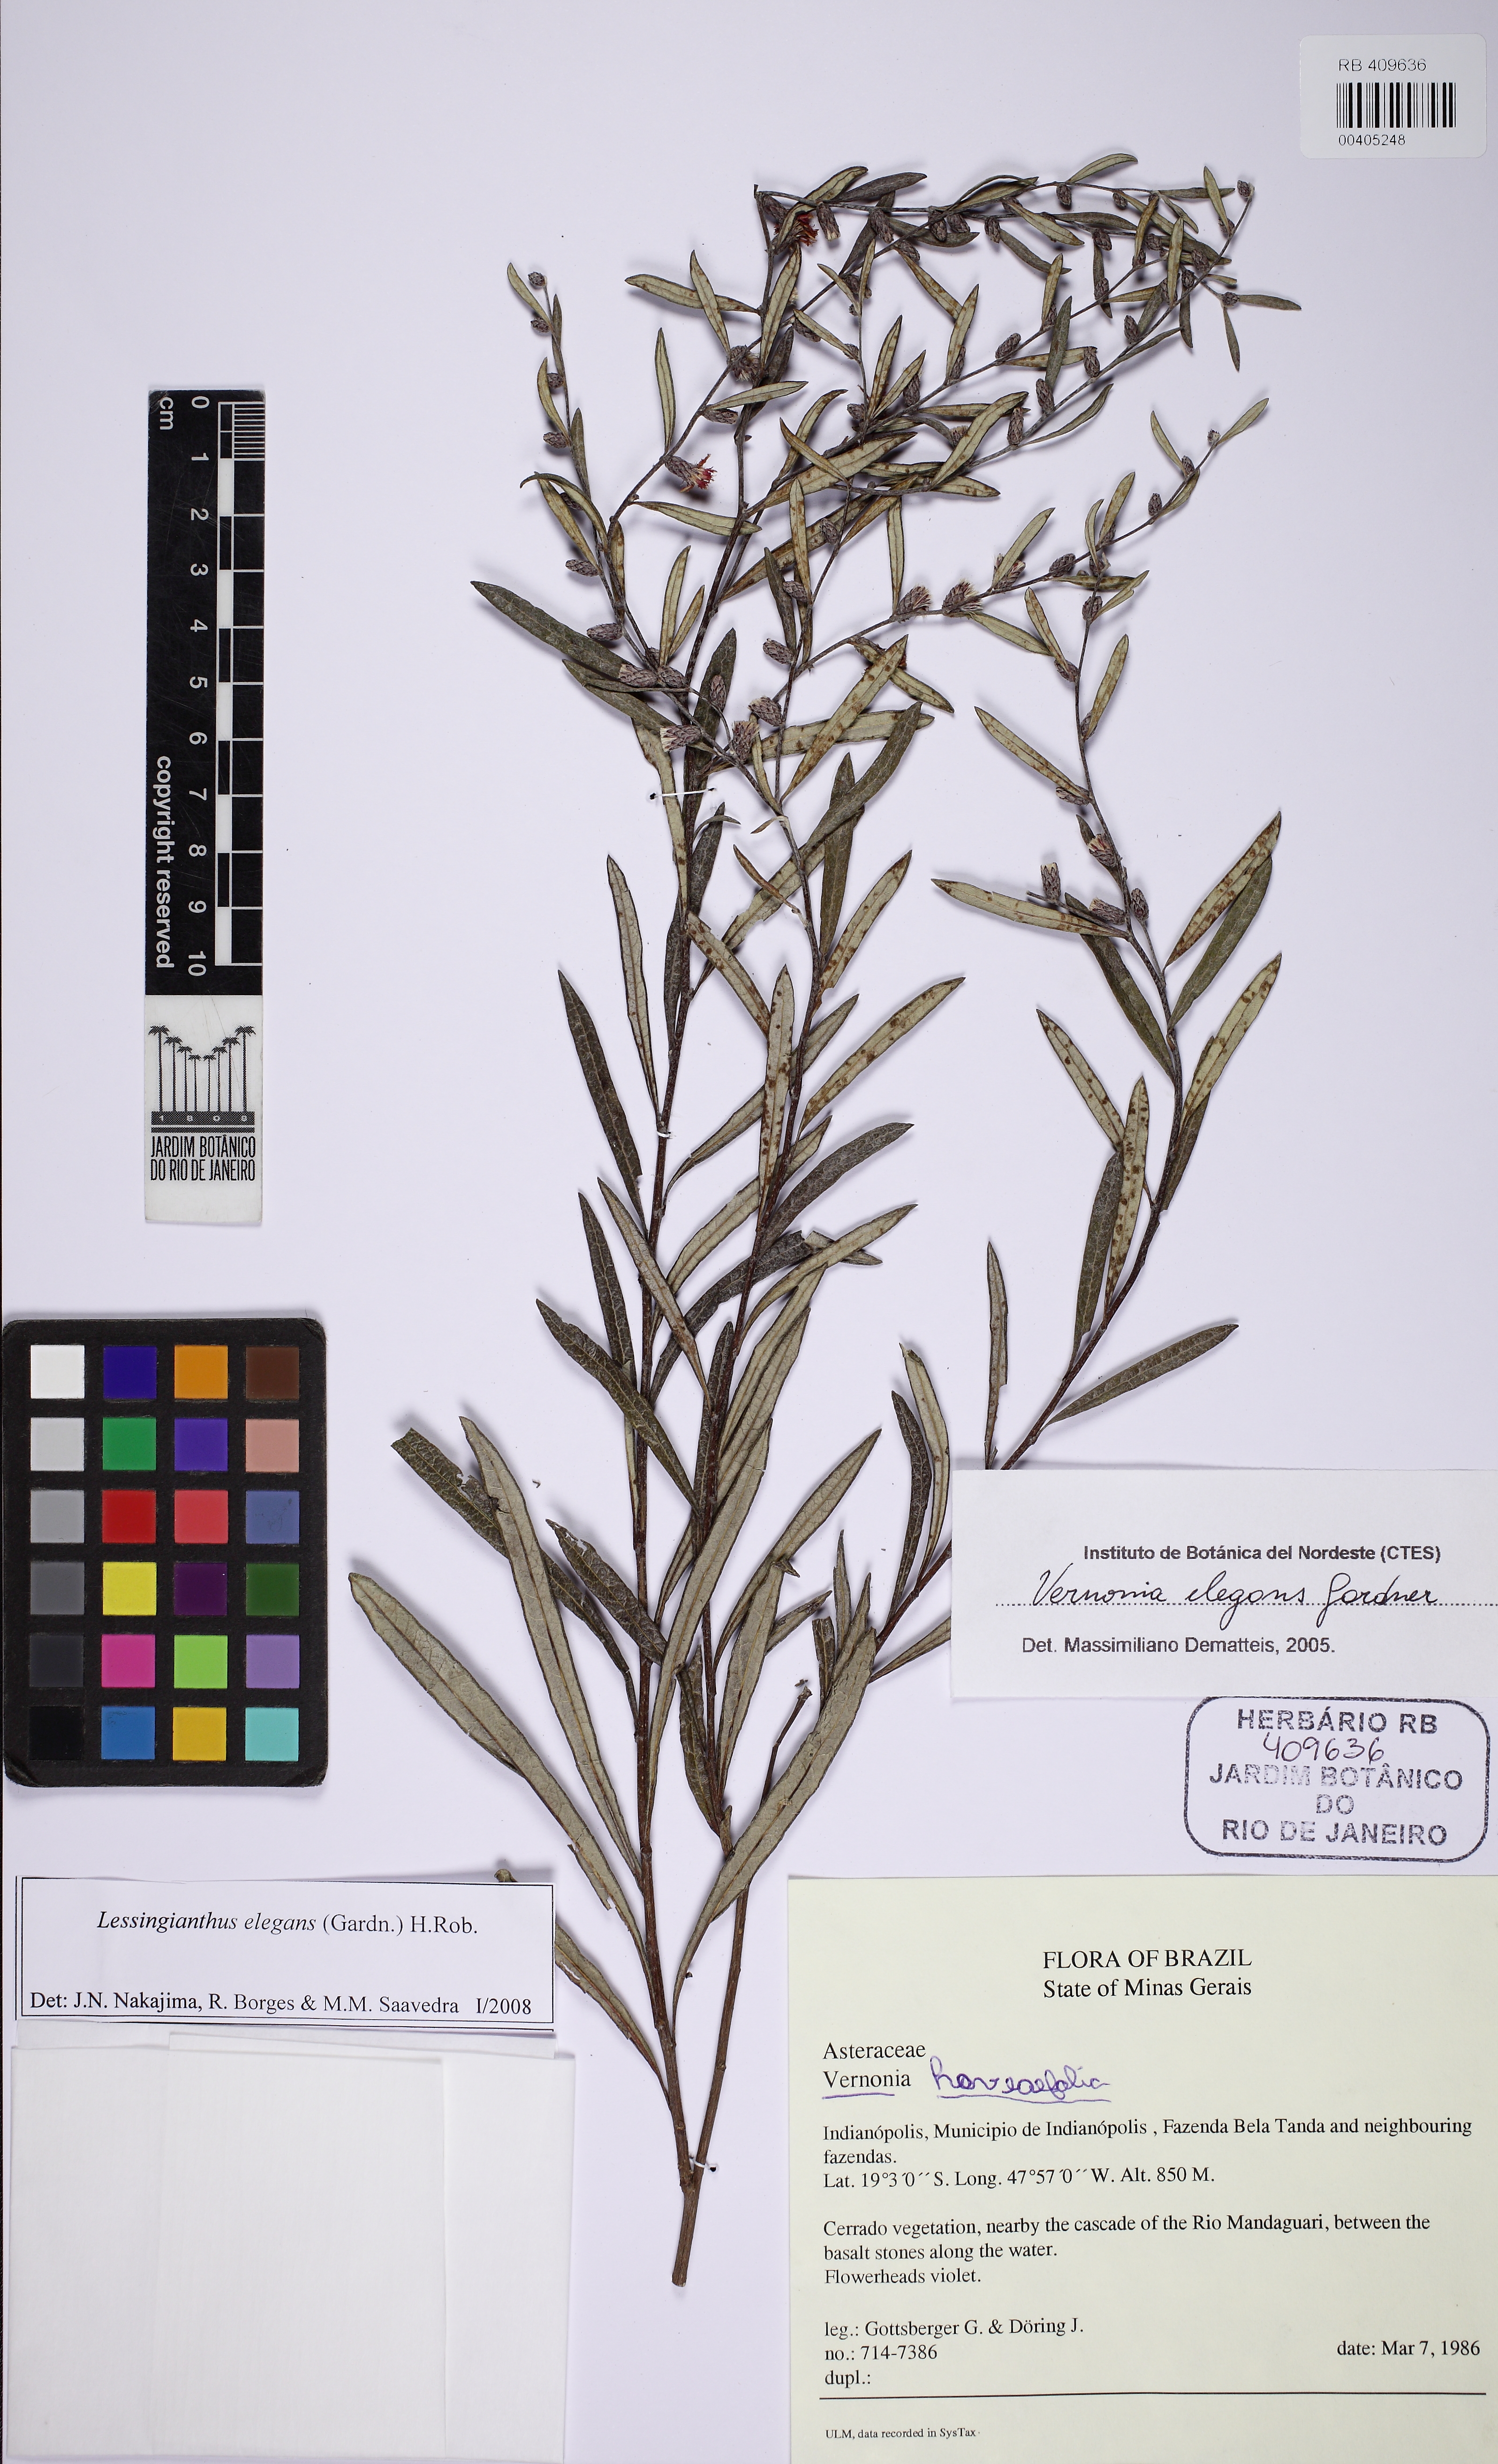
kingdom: Plantae
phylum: Tracheophyta
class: Magnoliopsida
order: Asterales
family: Asteraceae
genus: Lessingianthus
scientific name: Lessingianthus elegans
